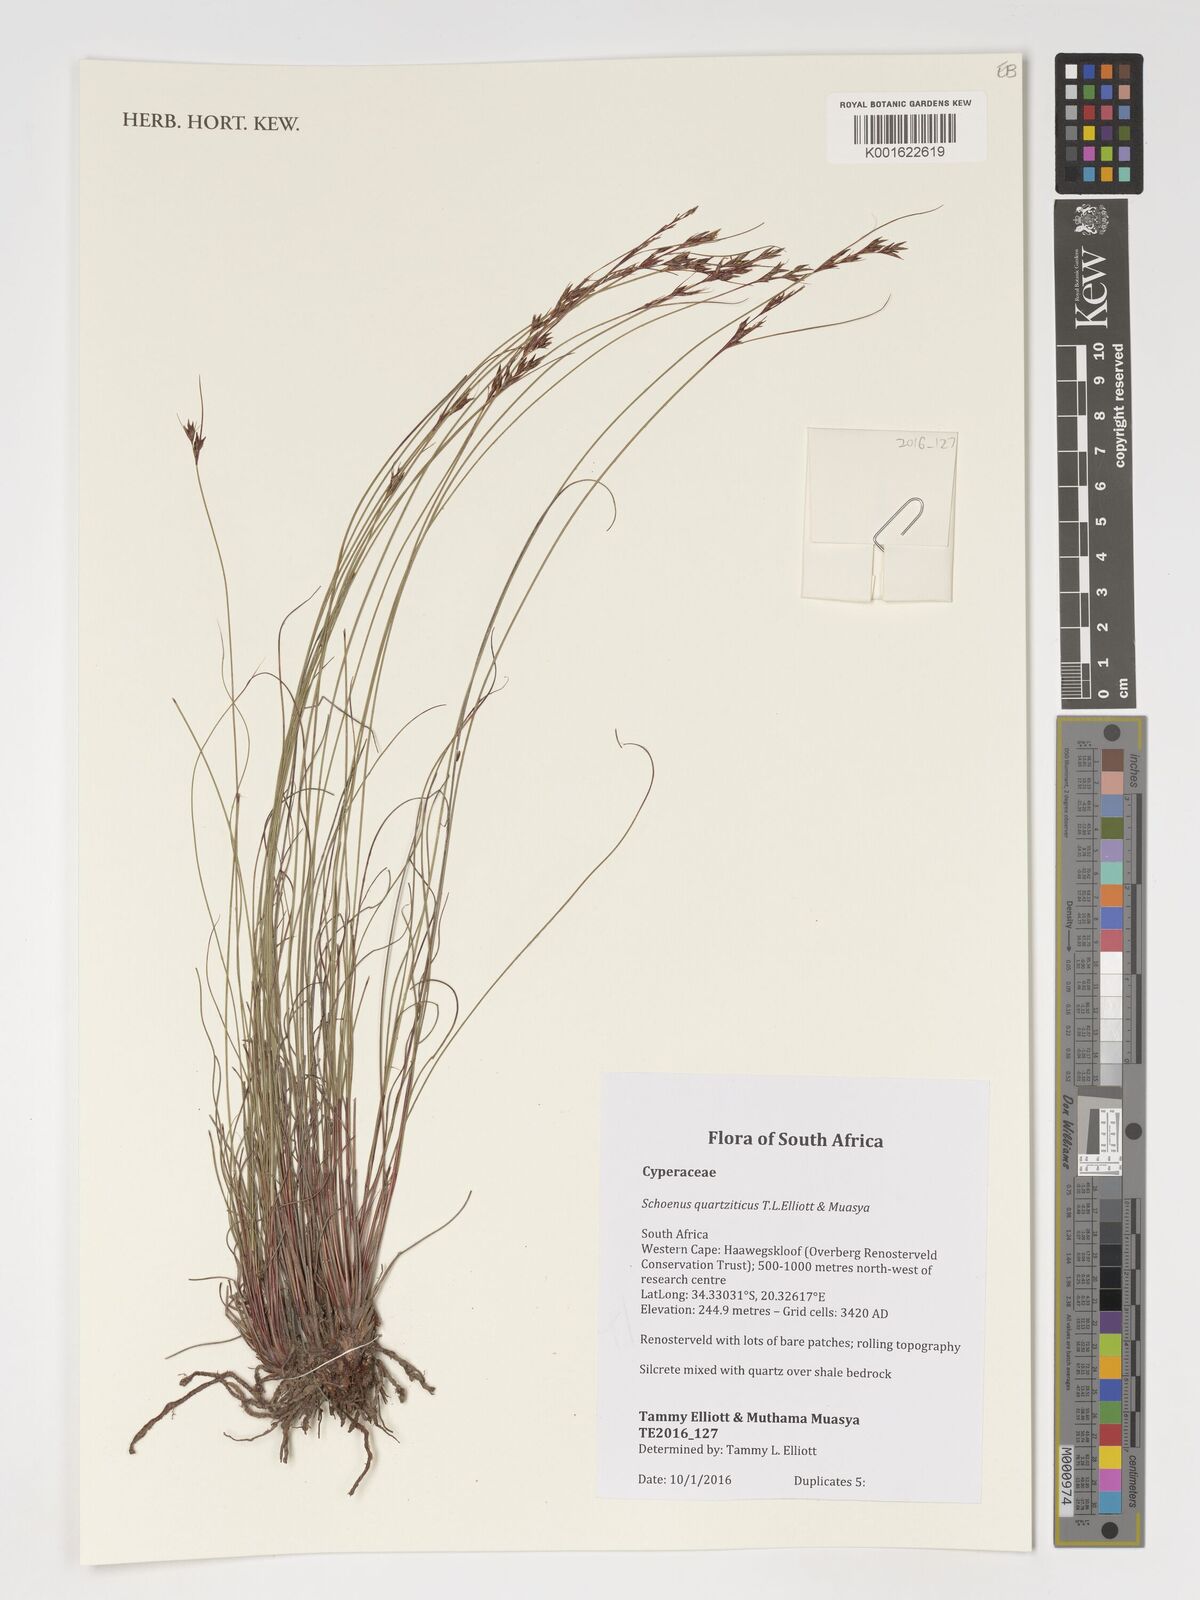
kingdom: Plantae
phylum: Tracheophyta
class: Liliopsida
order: Poales
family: Cyperaceae
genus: Schoenus
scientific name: Schoenus quartziticus
